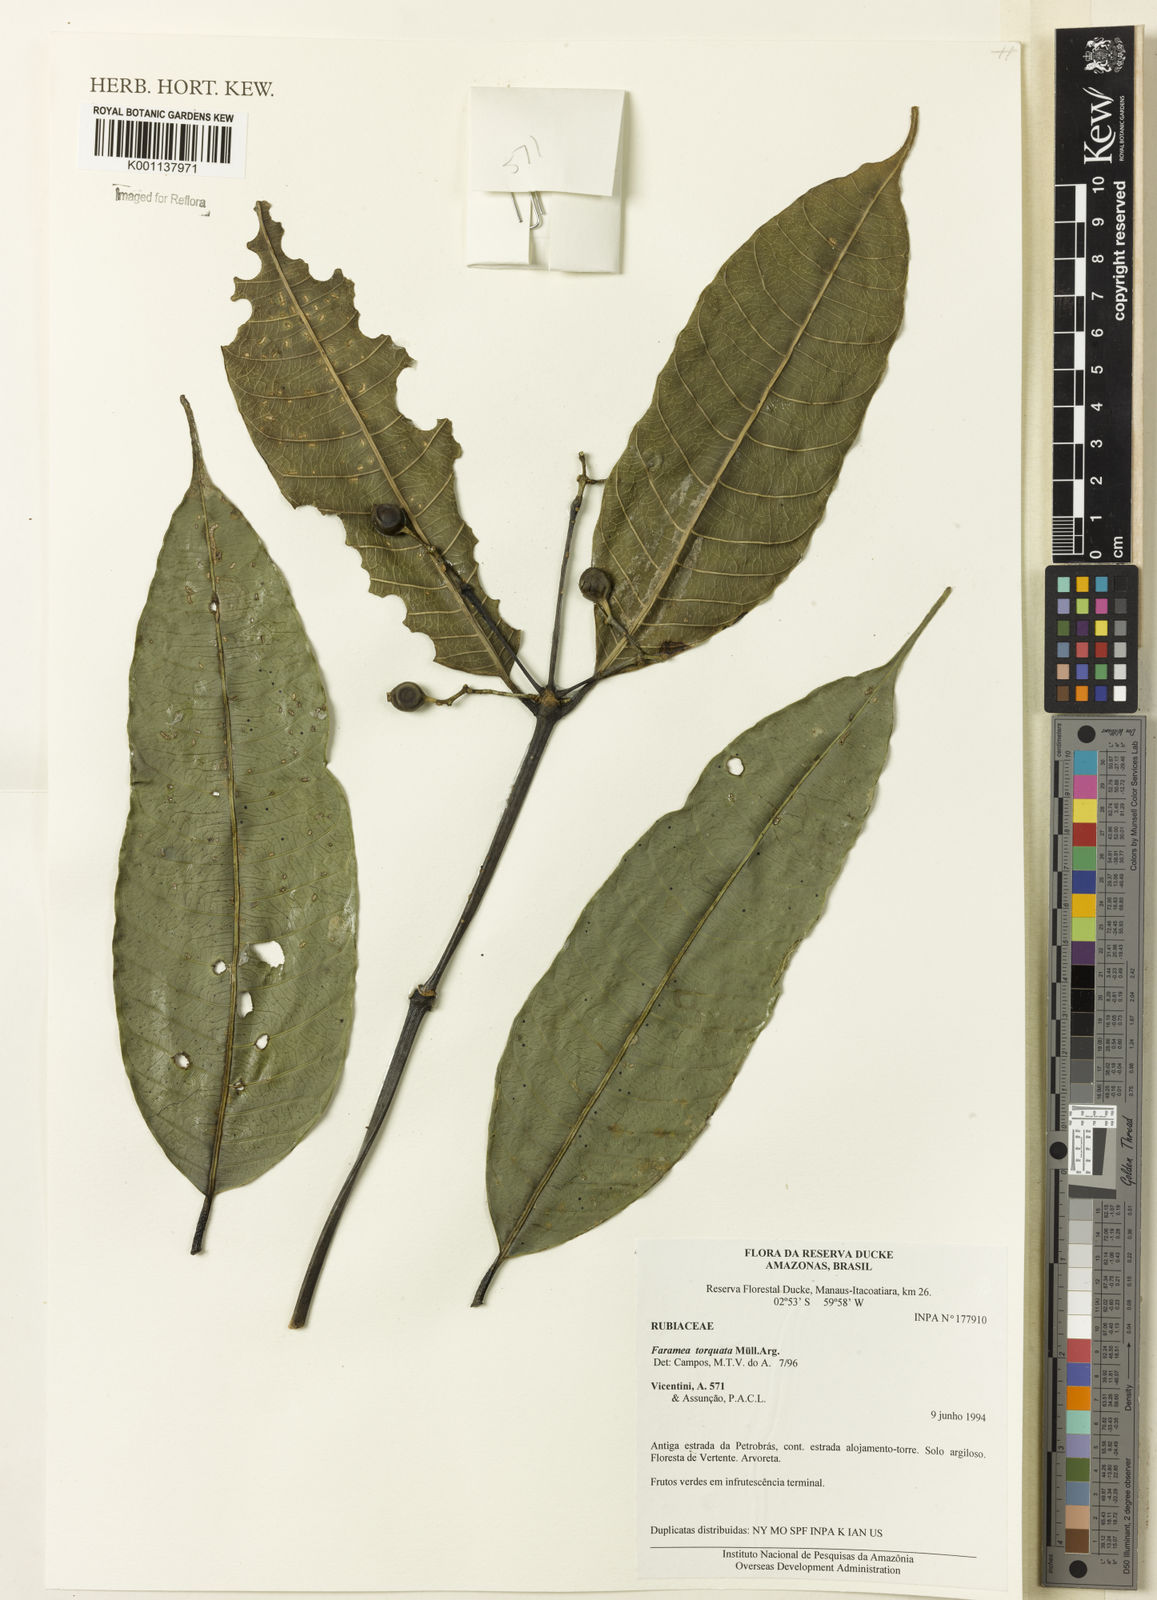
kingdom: Plantae
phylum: Tracheophyta
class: Magnoliopsida
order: Gentianales
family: Rubiaceae
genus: Faramea
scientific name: Faramea
